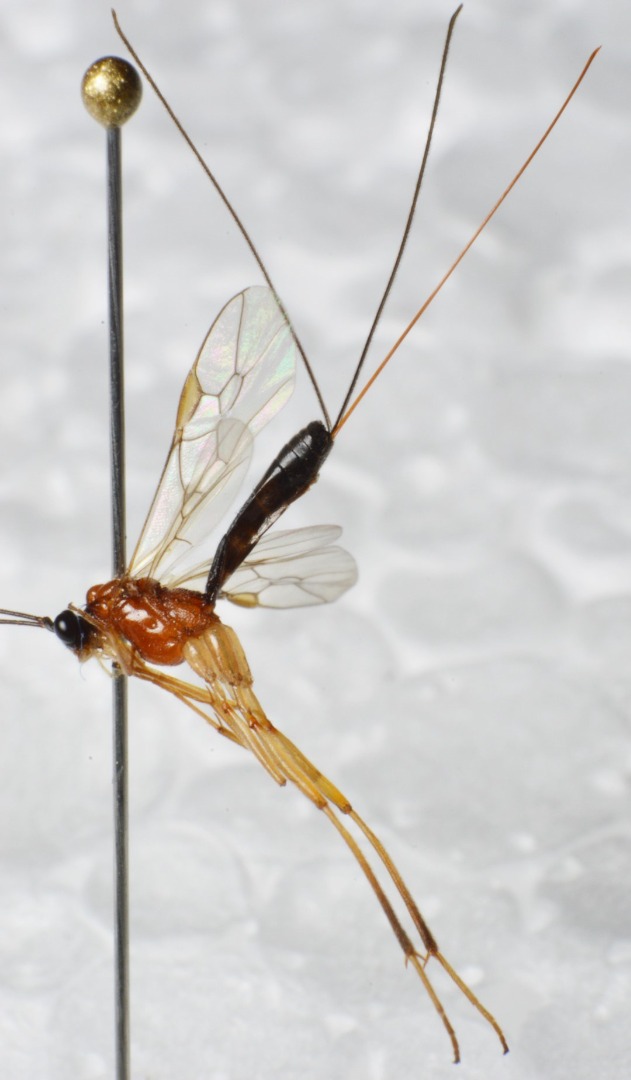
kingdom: Animalia
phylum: Arthropoda
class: Insecta
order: Hymenoptera
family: Braconidae
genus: Macrocentrus
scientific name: Macrocentrus bicolor
